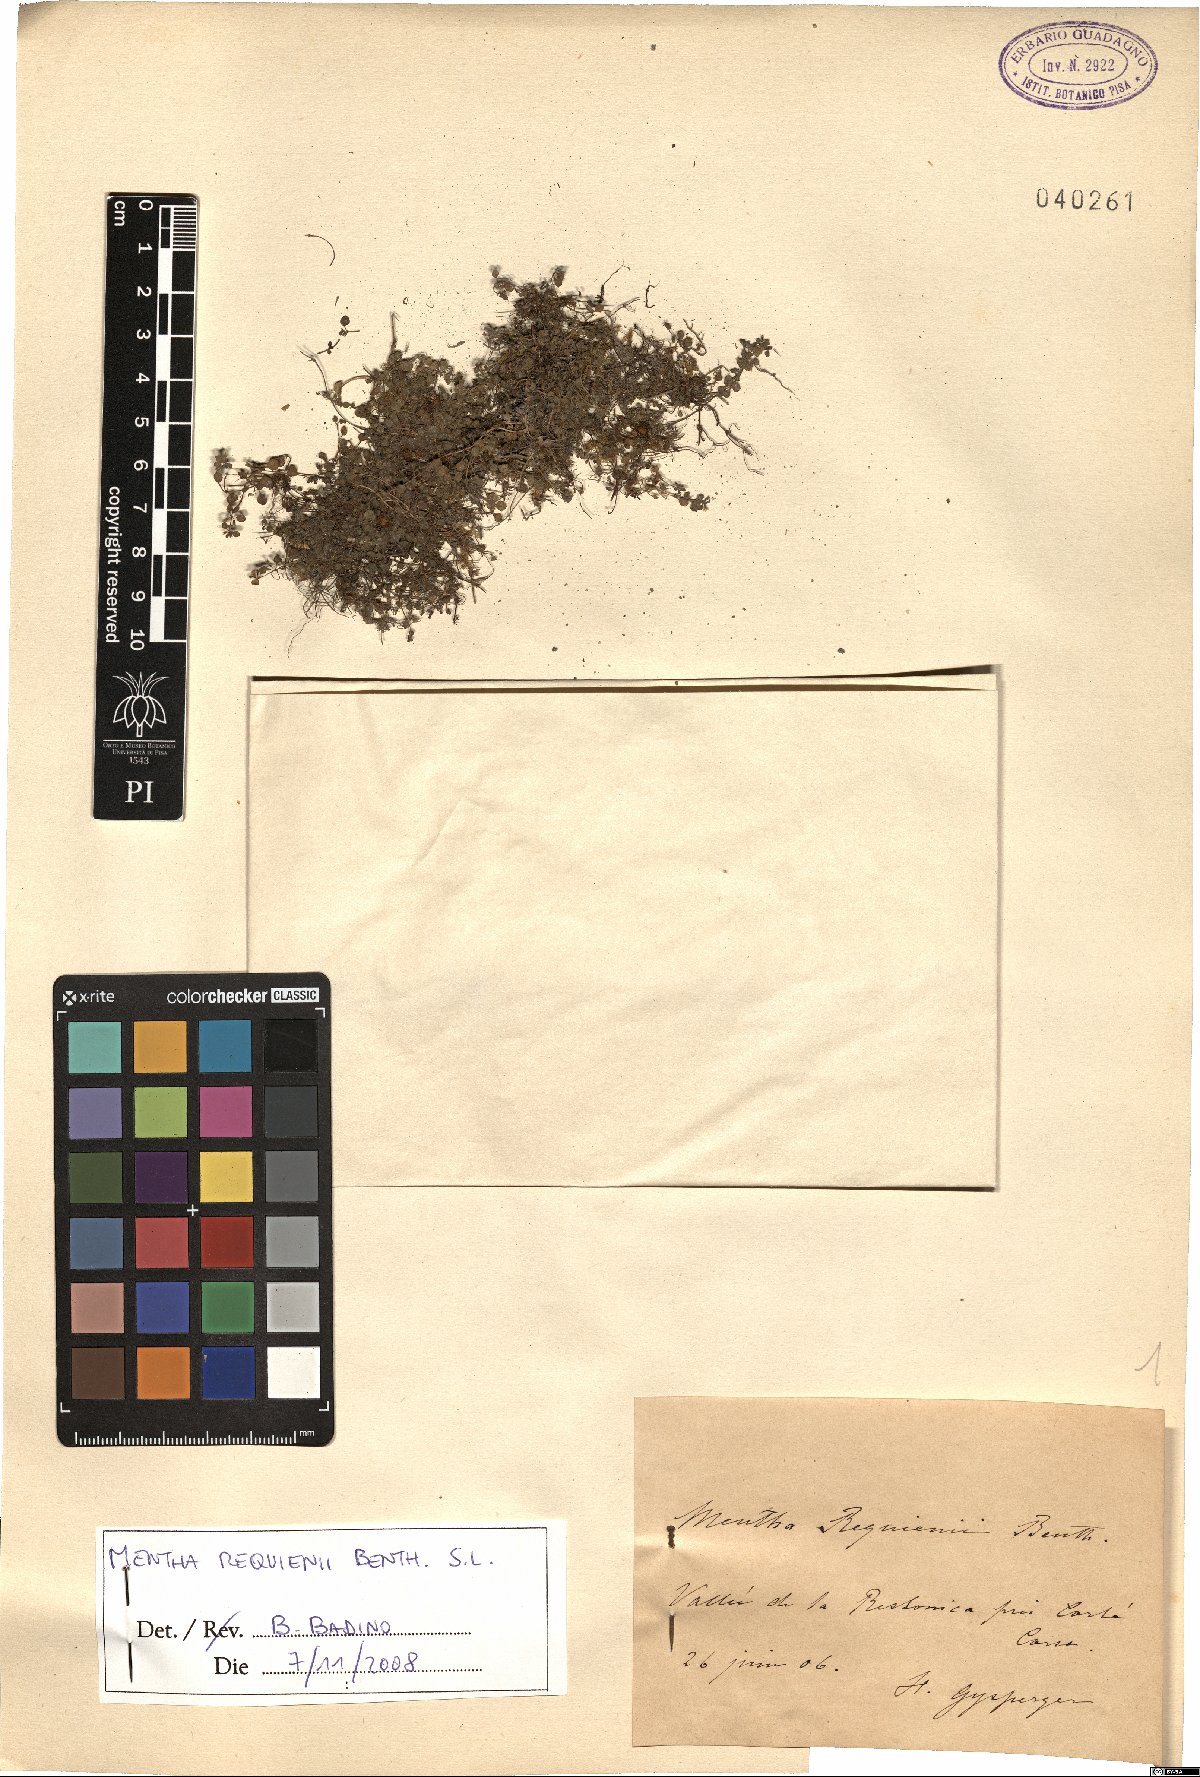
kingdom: Plantae
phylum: Tracheophyta
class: Magnoliopsida
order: Lamiales
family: Lamiaceae
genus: Mentha
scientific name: Mentha requienii
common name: Corsican mint
